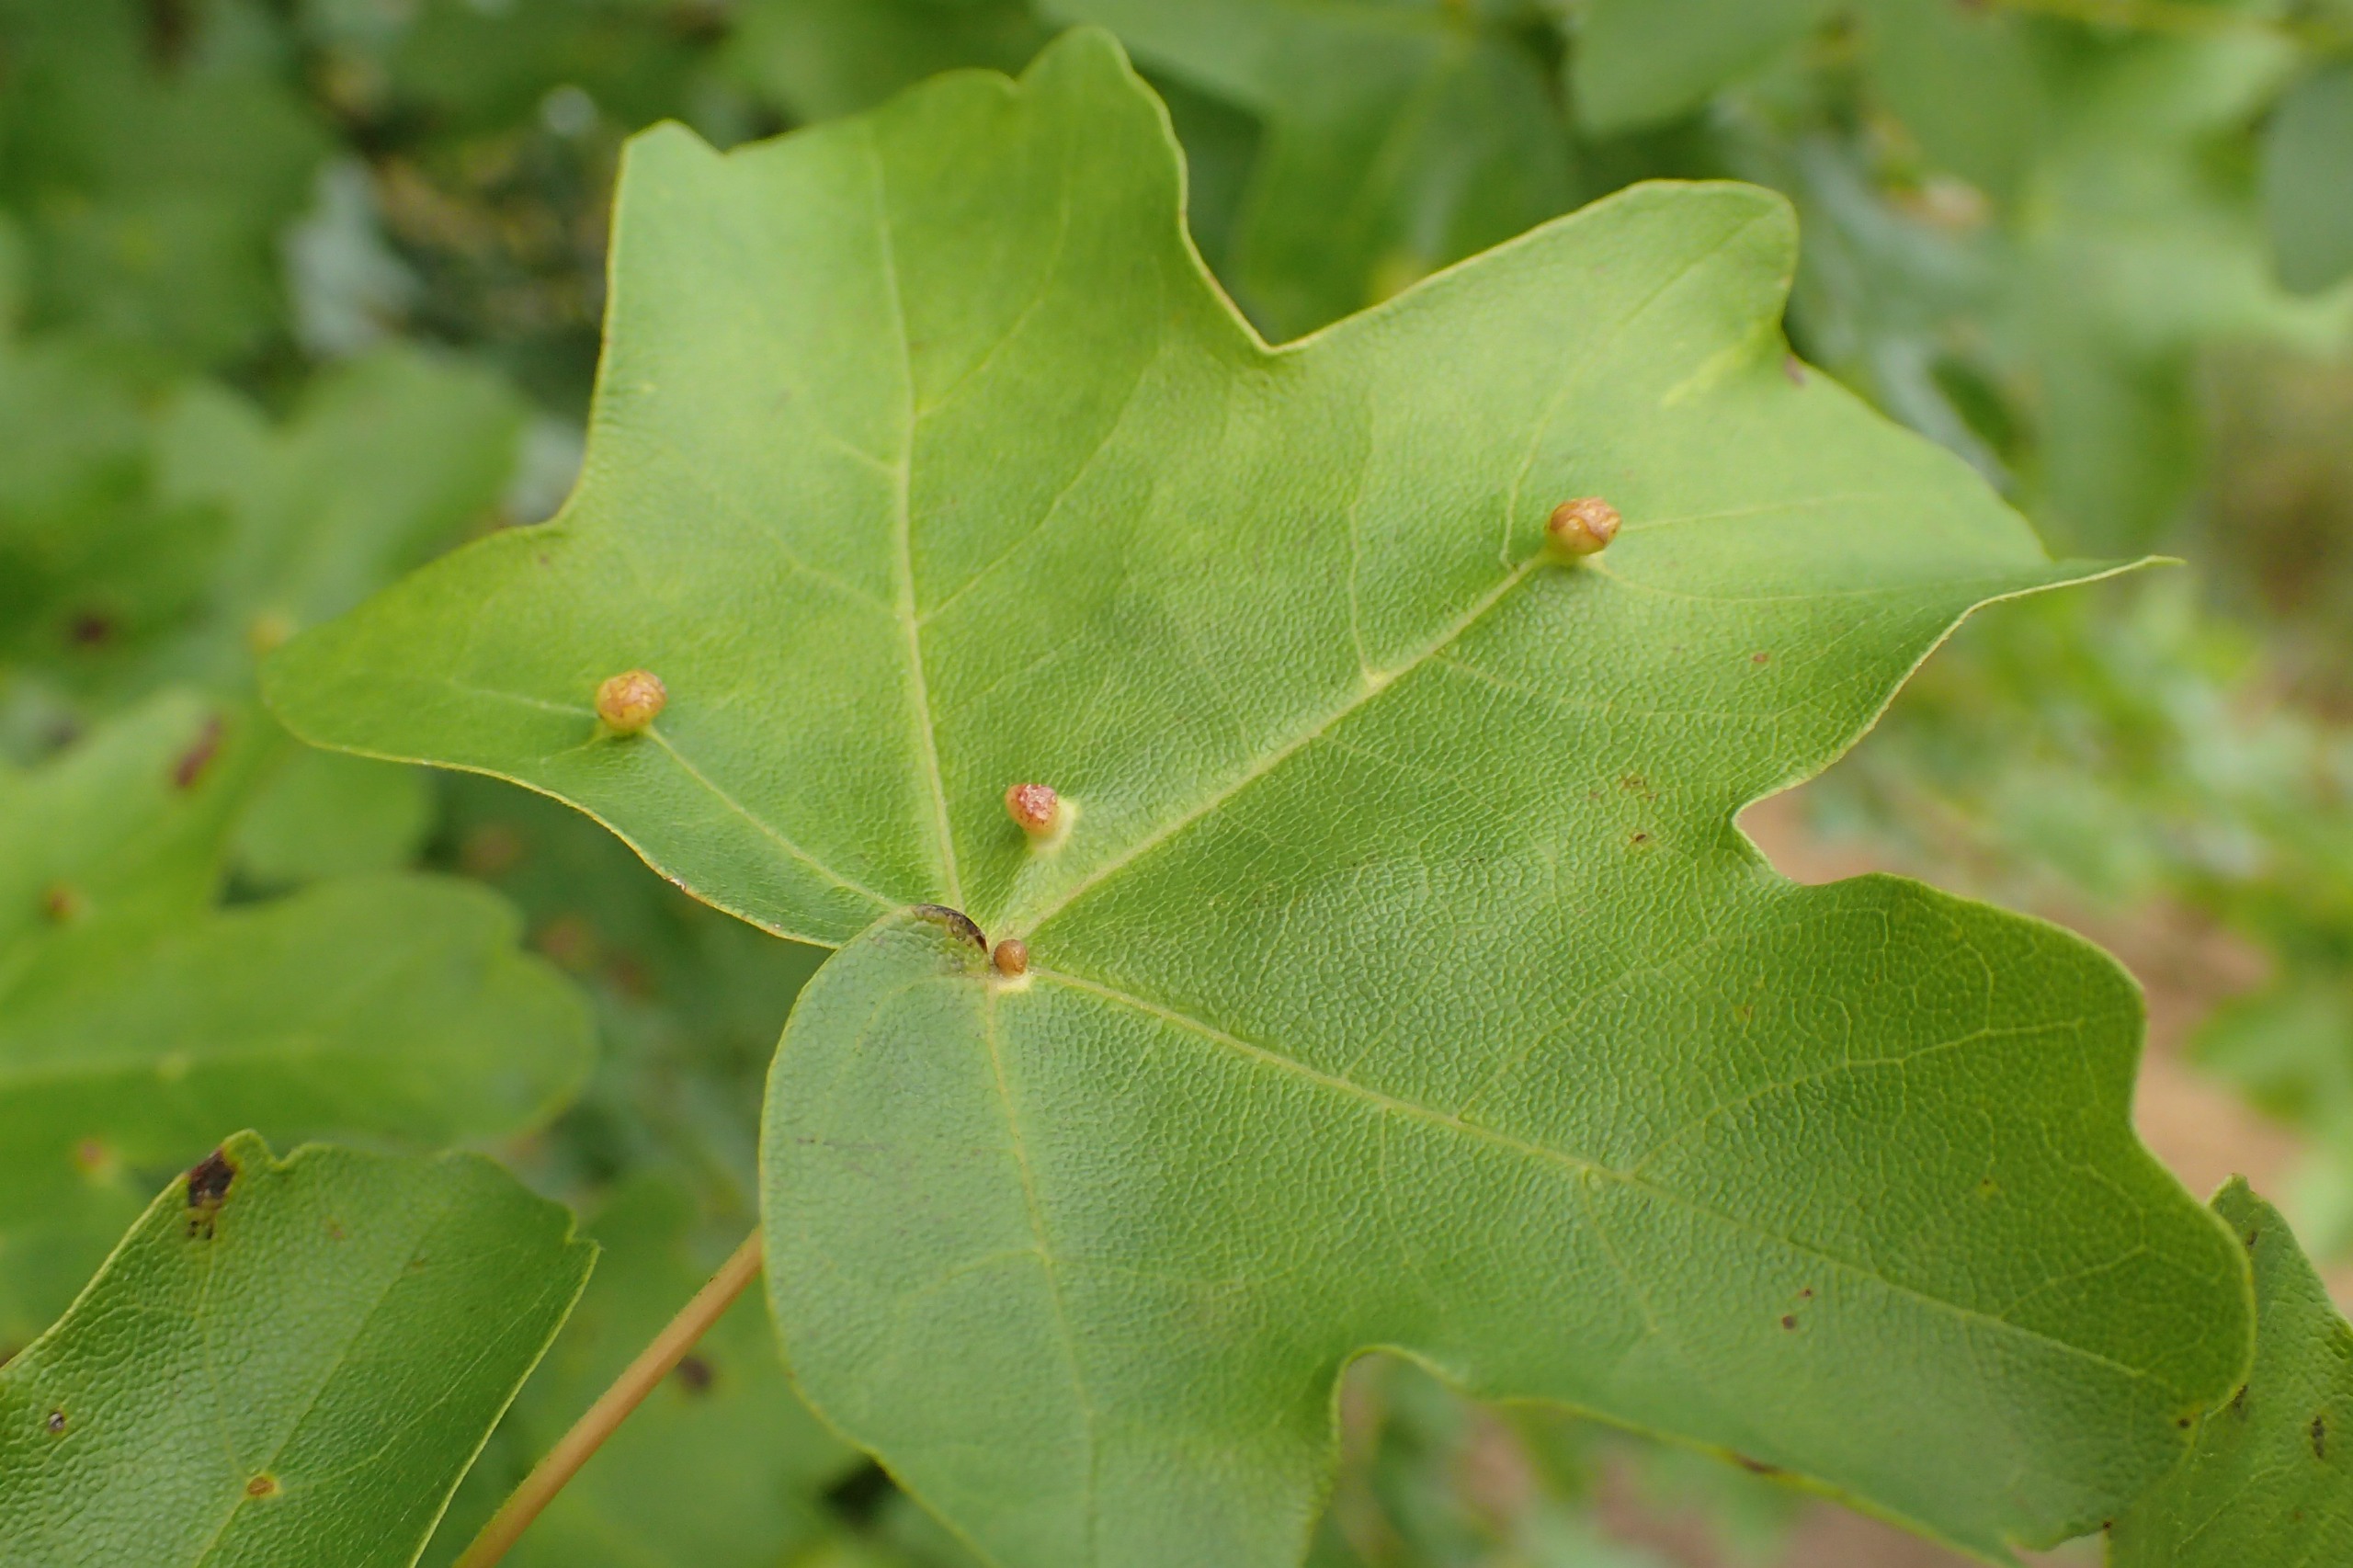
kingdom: Animalia
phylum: Arthropoda
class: Arachnida
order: Trombidiformes
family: Eriophyidae
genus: Aceria
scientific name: Aceria macrochelus
